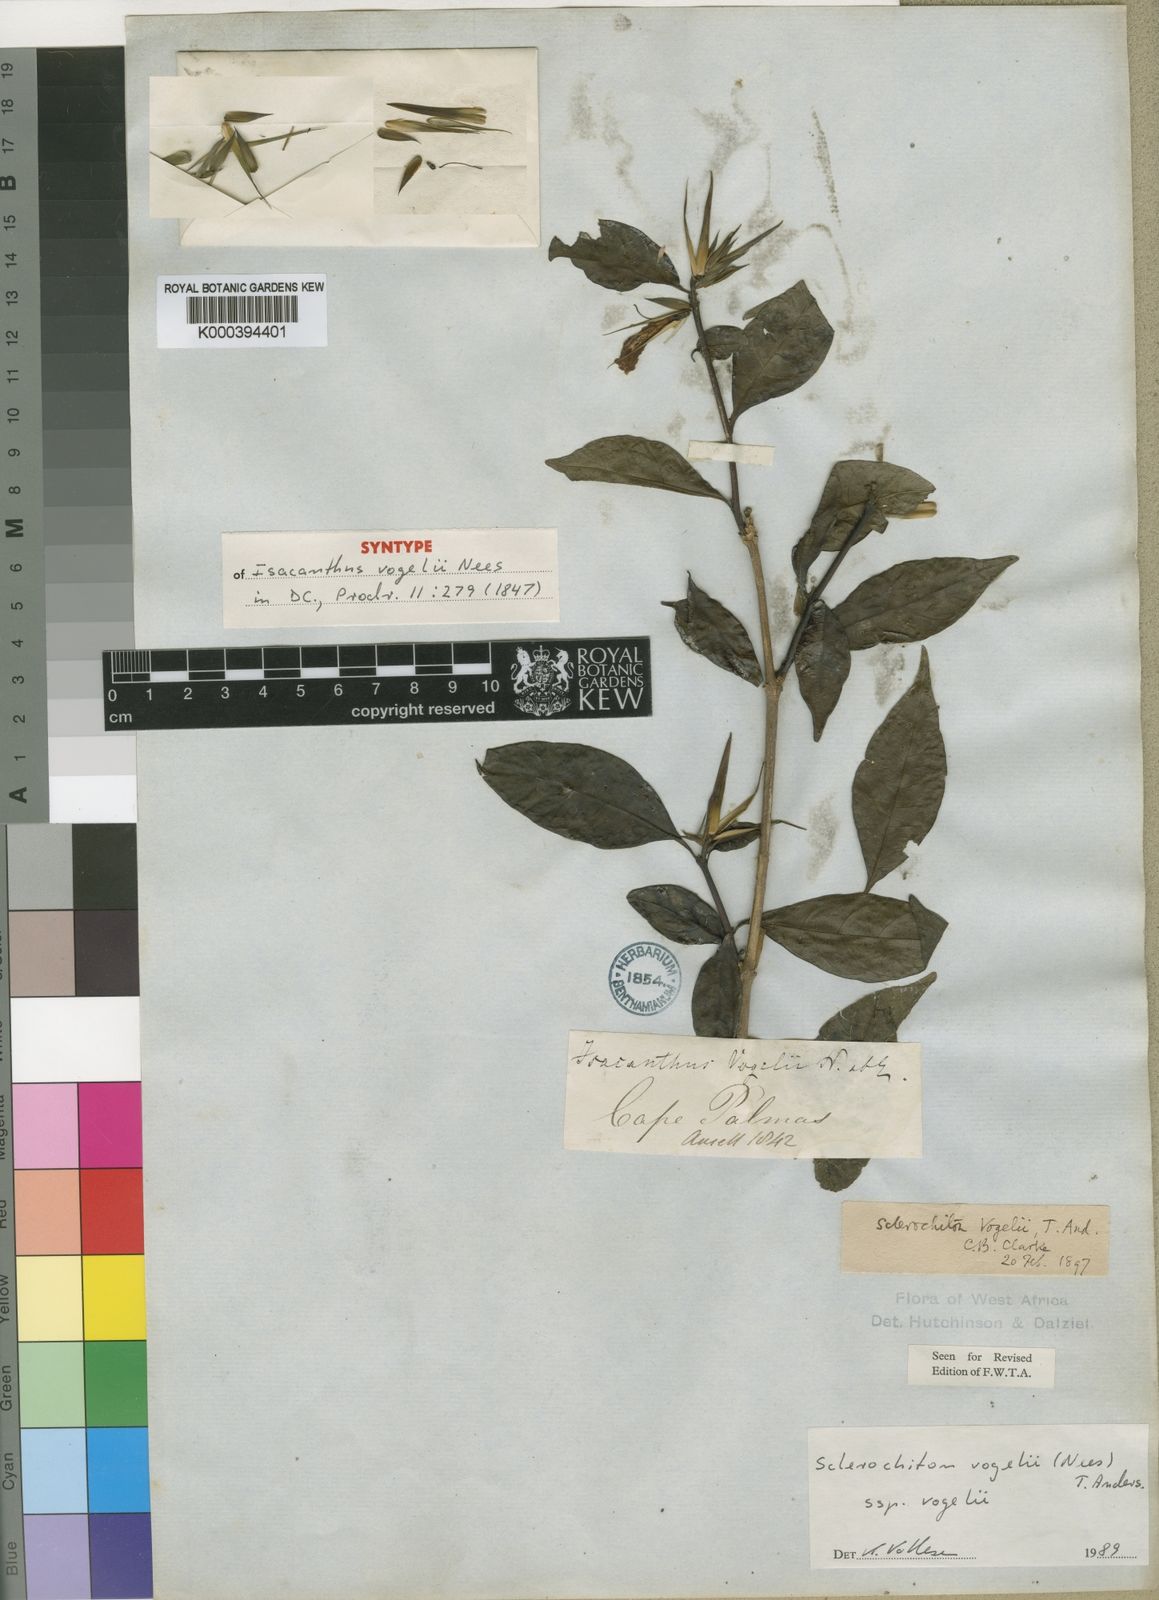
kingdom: Plantae
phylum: Tracheophyta
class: Magnoliopsida
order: Lamiales
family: Acanthaceae
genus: Sclerochiton
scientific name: Sclerochiton vogelii
